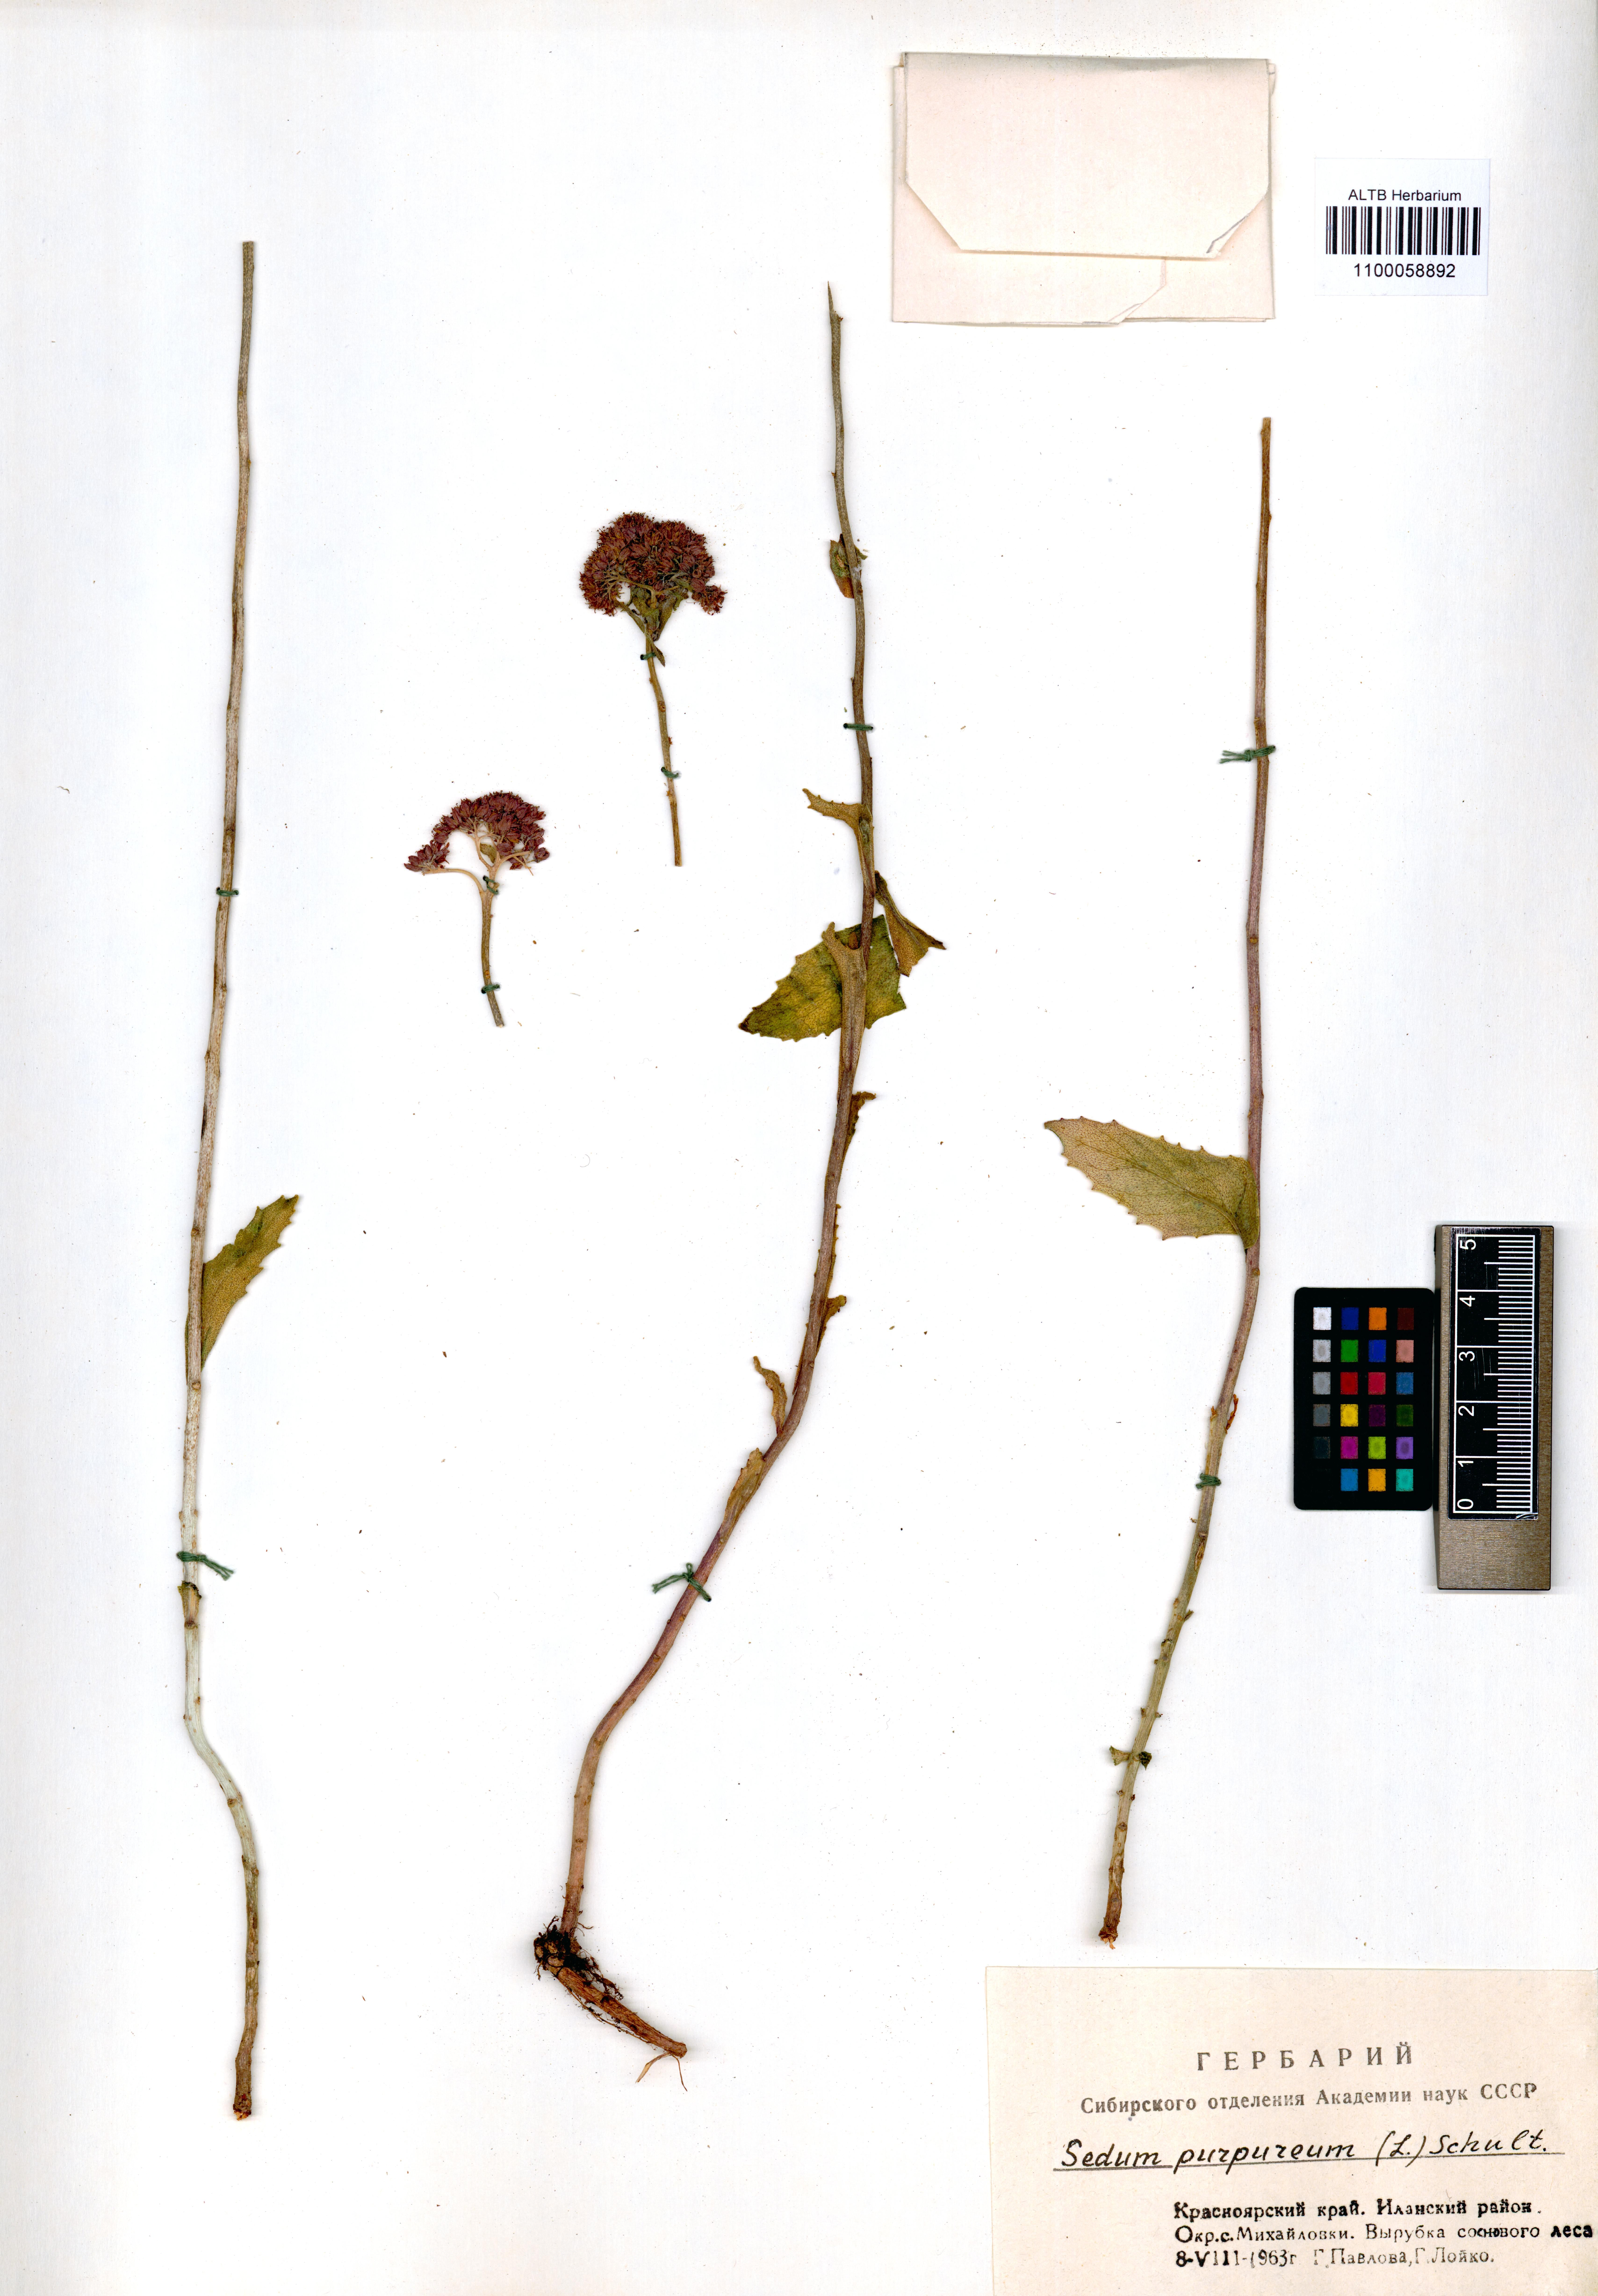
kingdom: Plantae
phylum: Tracheophyta
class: Magnoliopsida
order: Saxifragales
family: Crassulaceae
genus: Hylotelephium
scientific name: Hylotelephium telephium
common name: Live-forever
